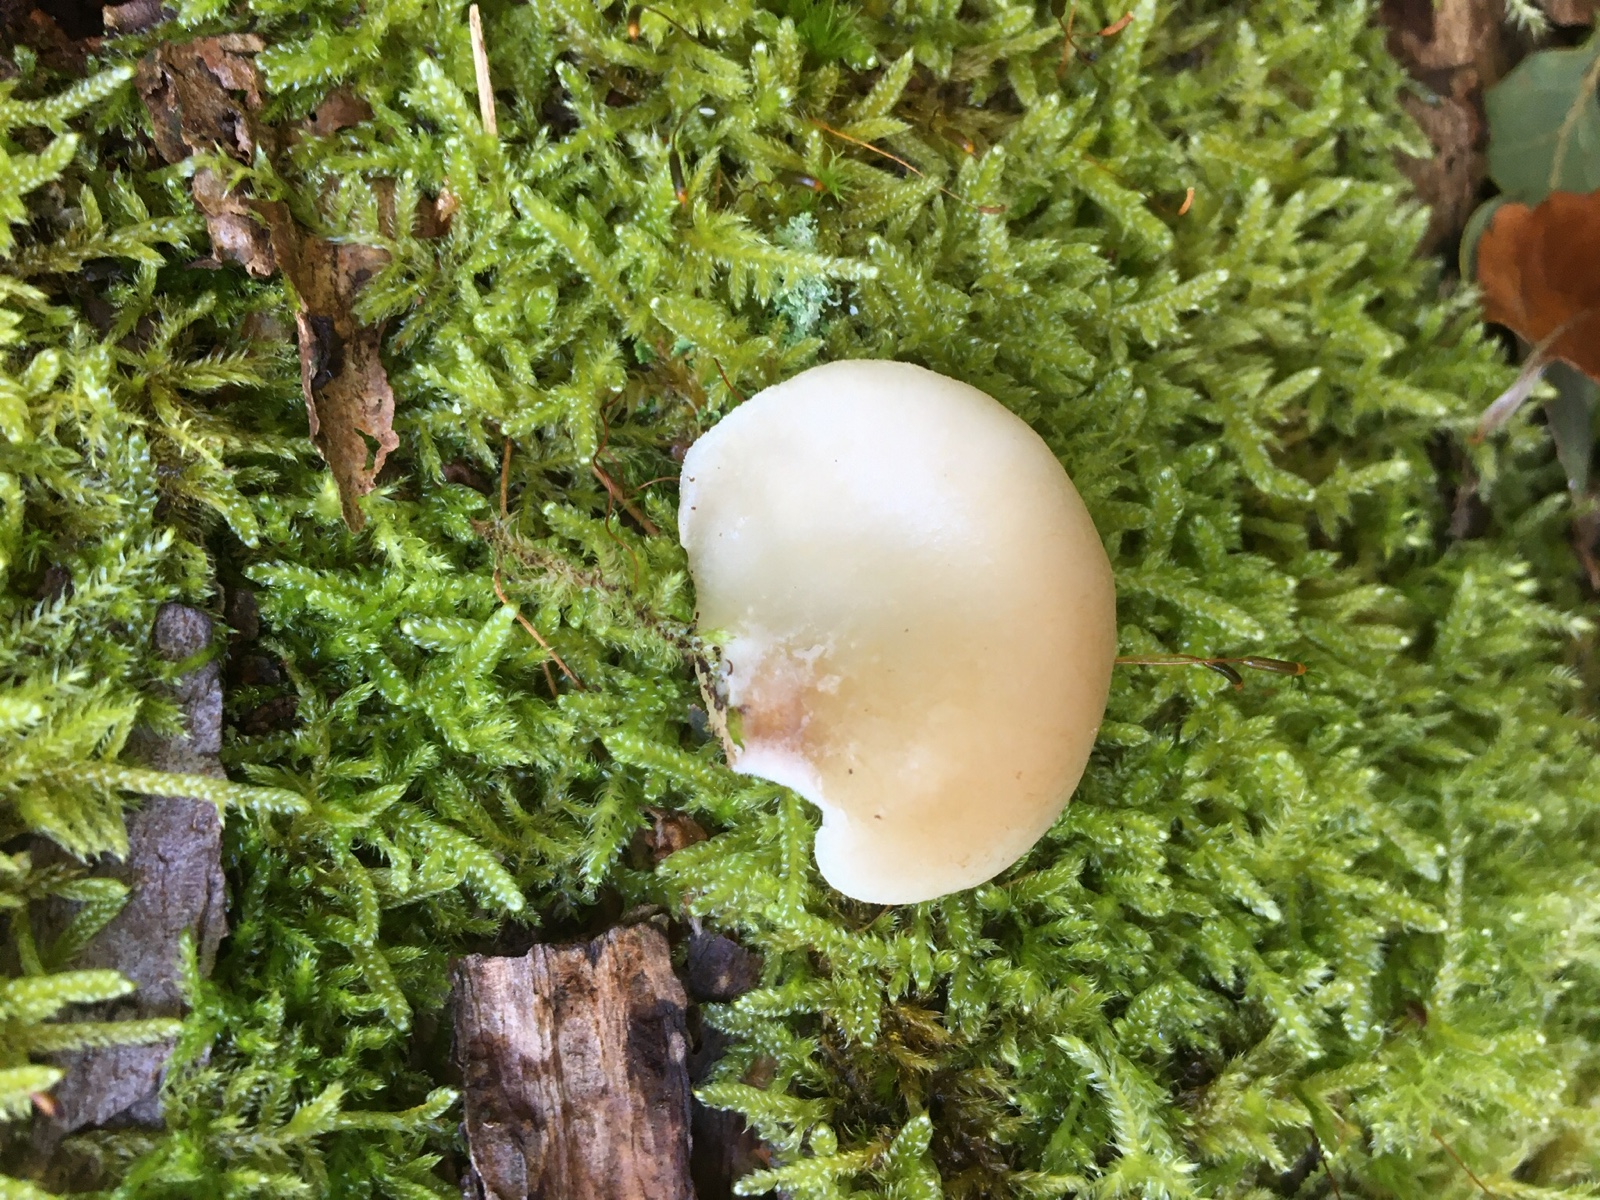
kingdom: Fungi
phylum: Basidiomycota
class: Agaricomycetes
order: Agaricales
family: Crepidotaceae
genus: Crepidotus
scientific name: Crepidotus mollis
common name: blød muslingesvamp
